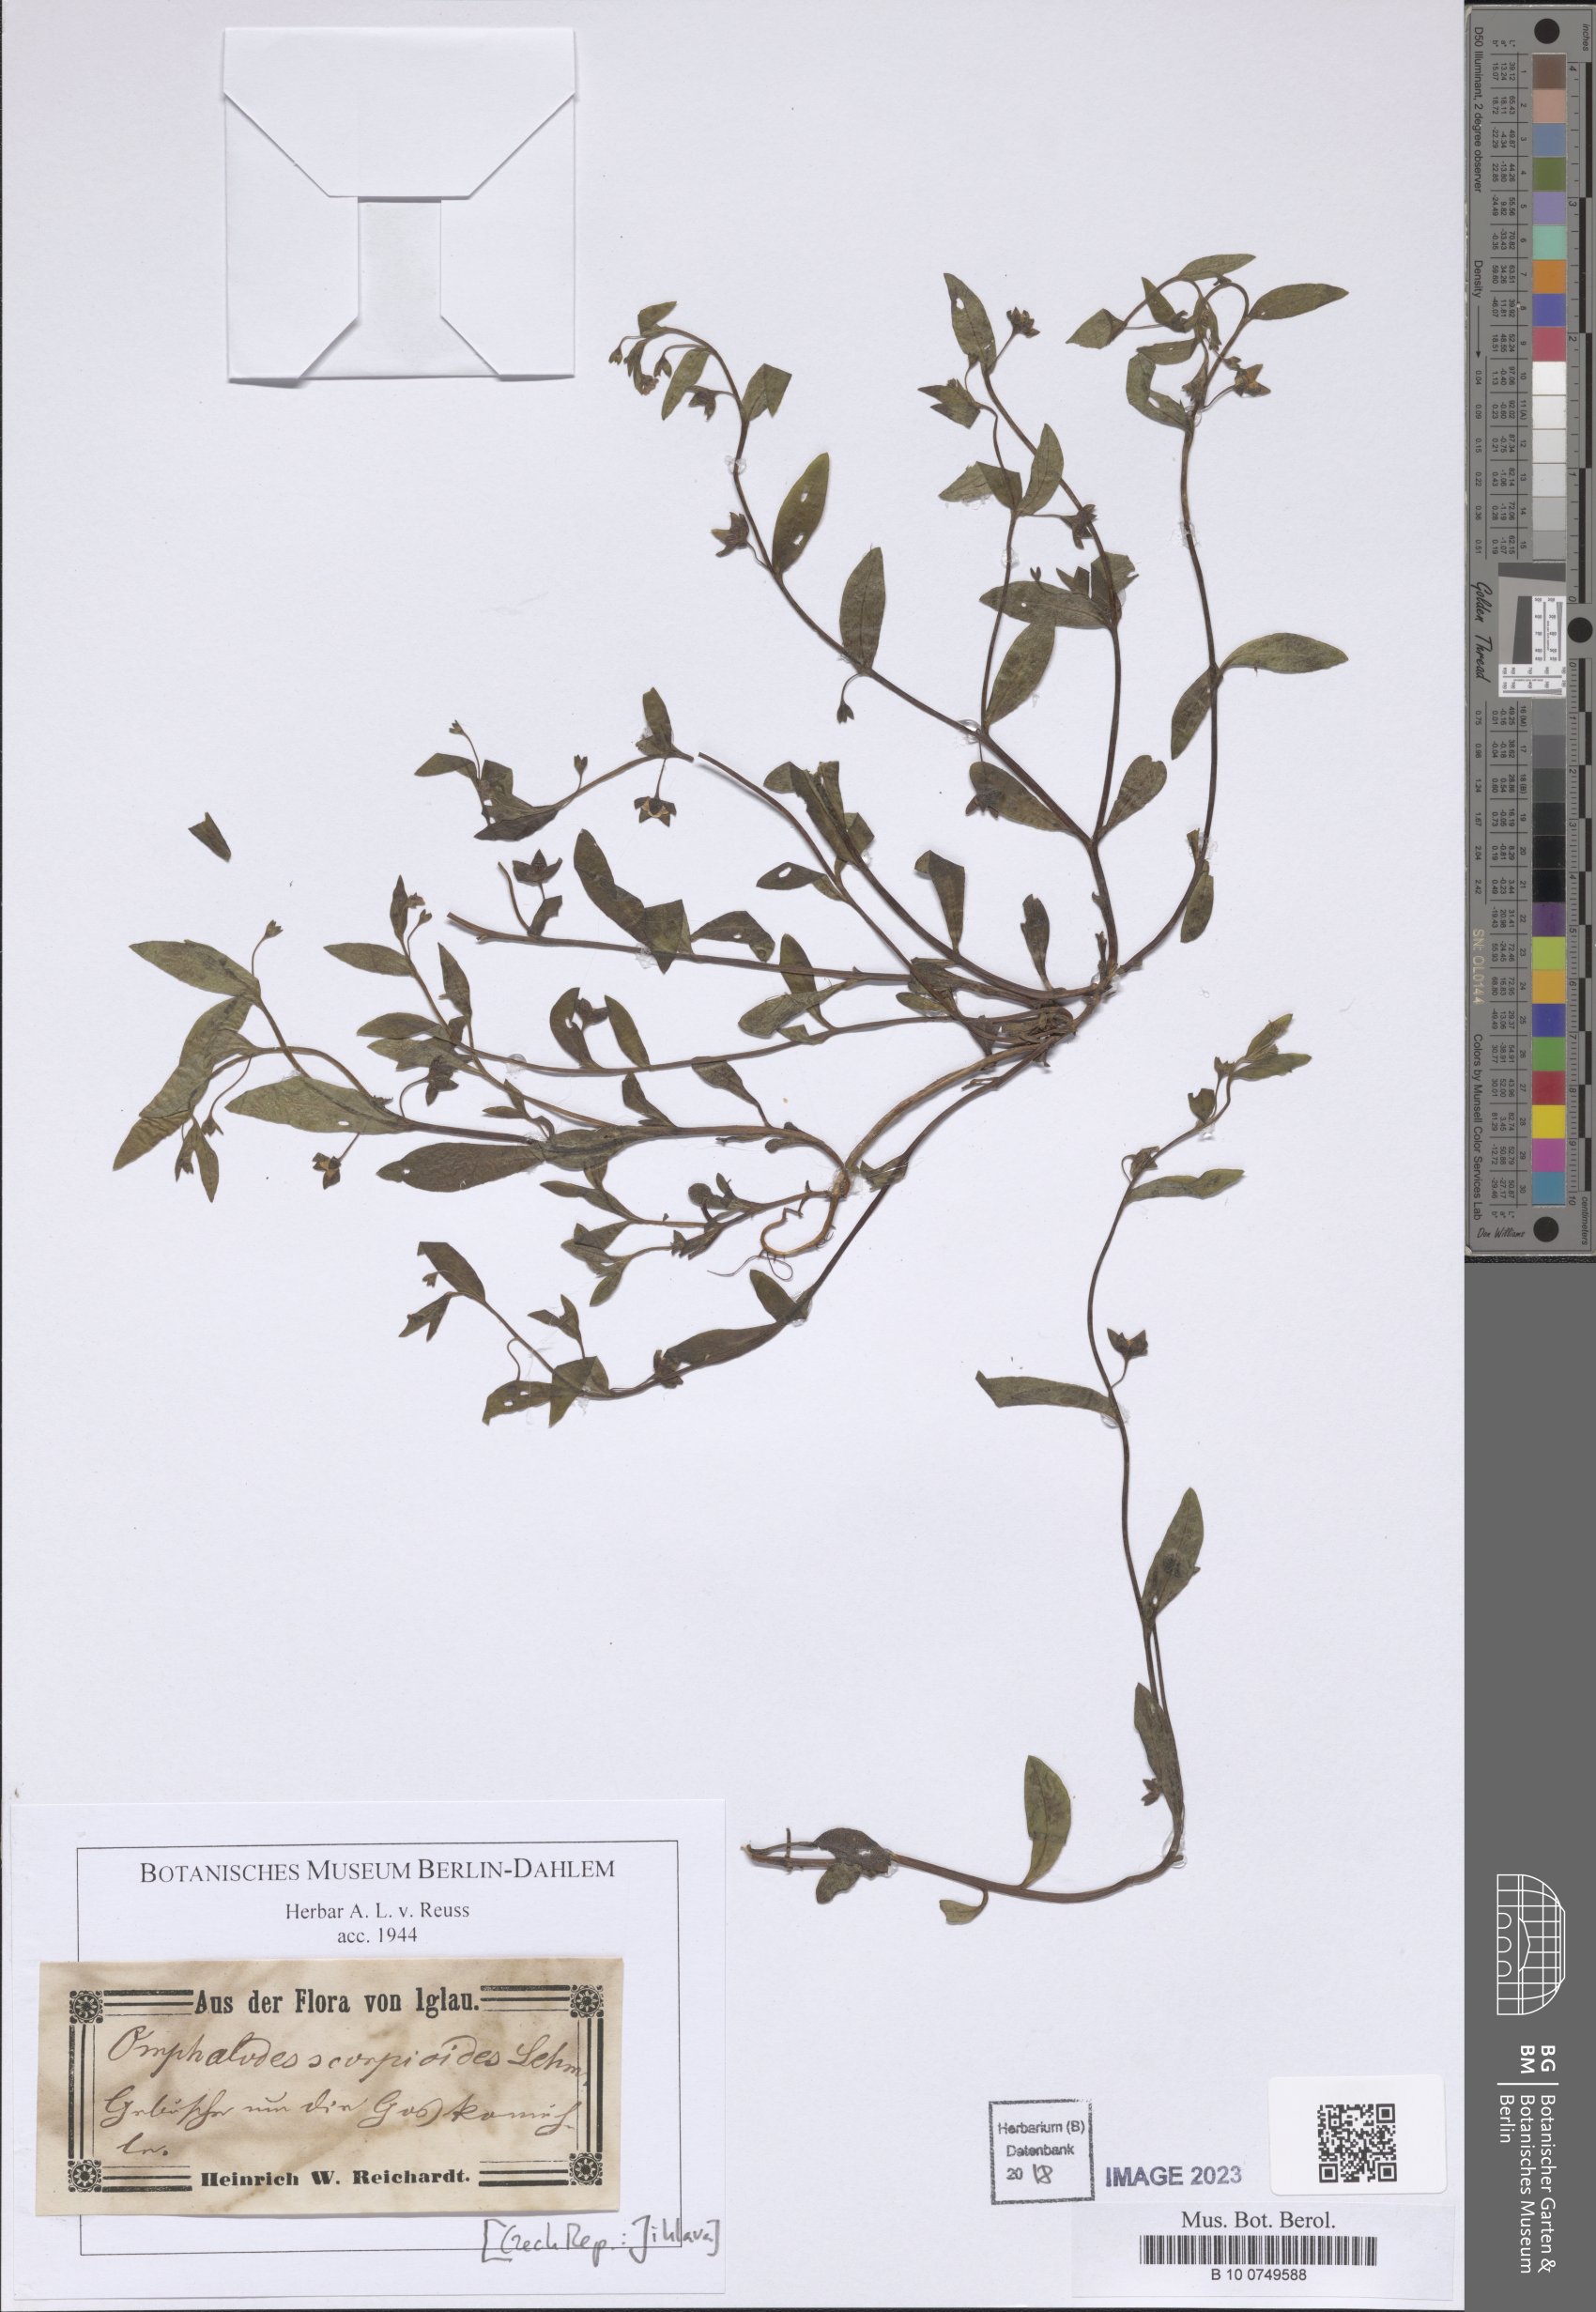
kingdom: Plantae
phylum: Tracheophyta
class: Magnoliopsida
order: Boraginales
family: Boraginaceae
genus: Memoremea
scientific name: Memoremea scorpioides
